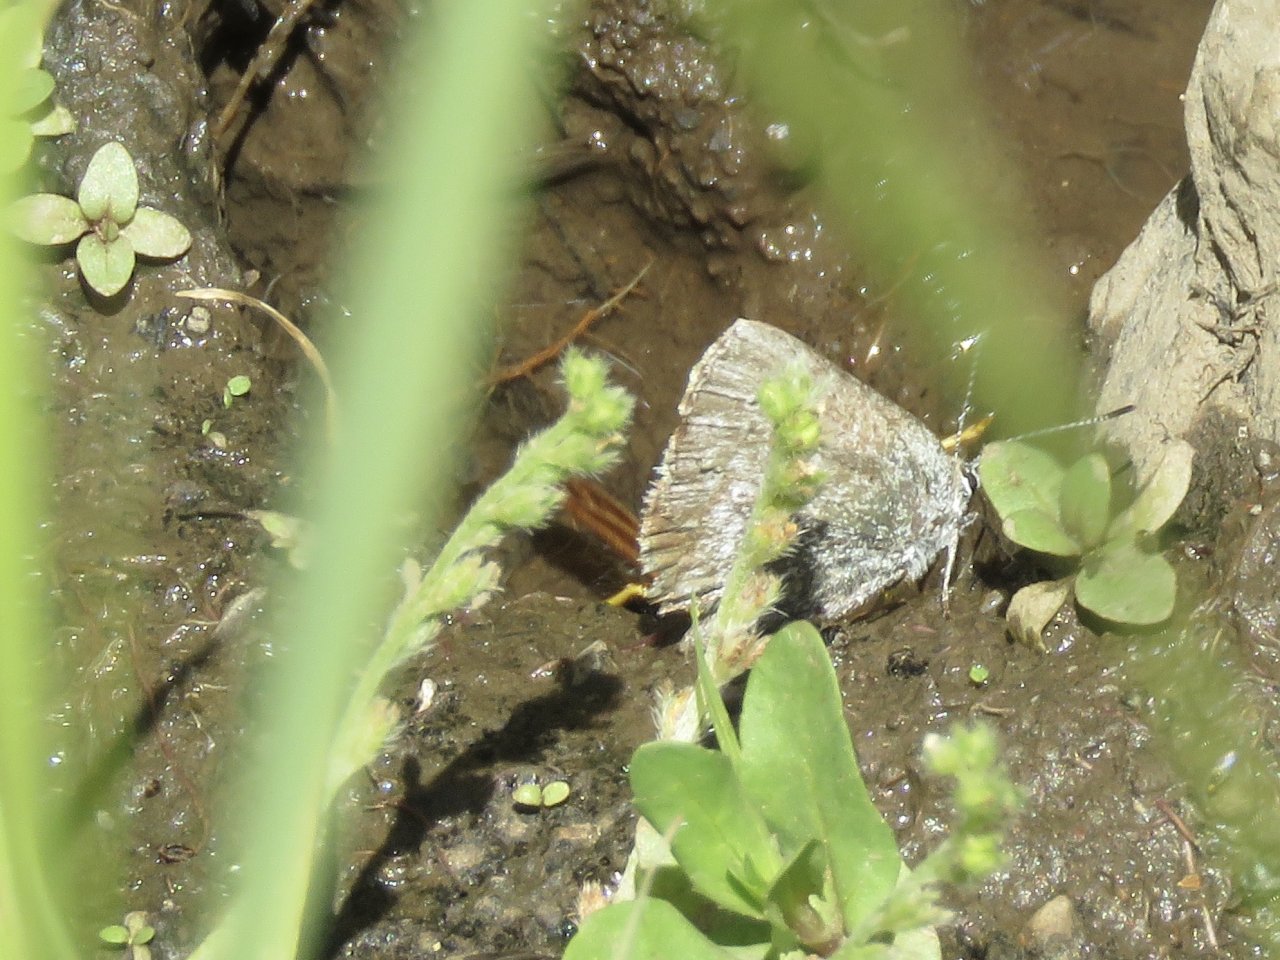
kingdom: Animalia
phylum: Arthropoda
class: Insecta
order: Lepidoptera
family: Lycaenidae
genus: Satyrium
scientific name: Satyrium fuliginosa
